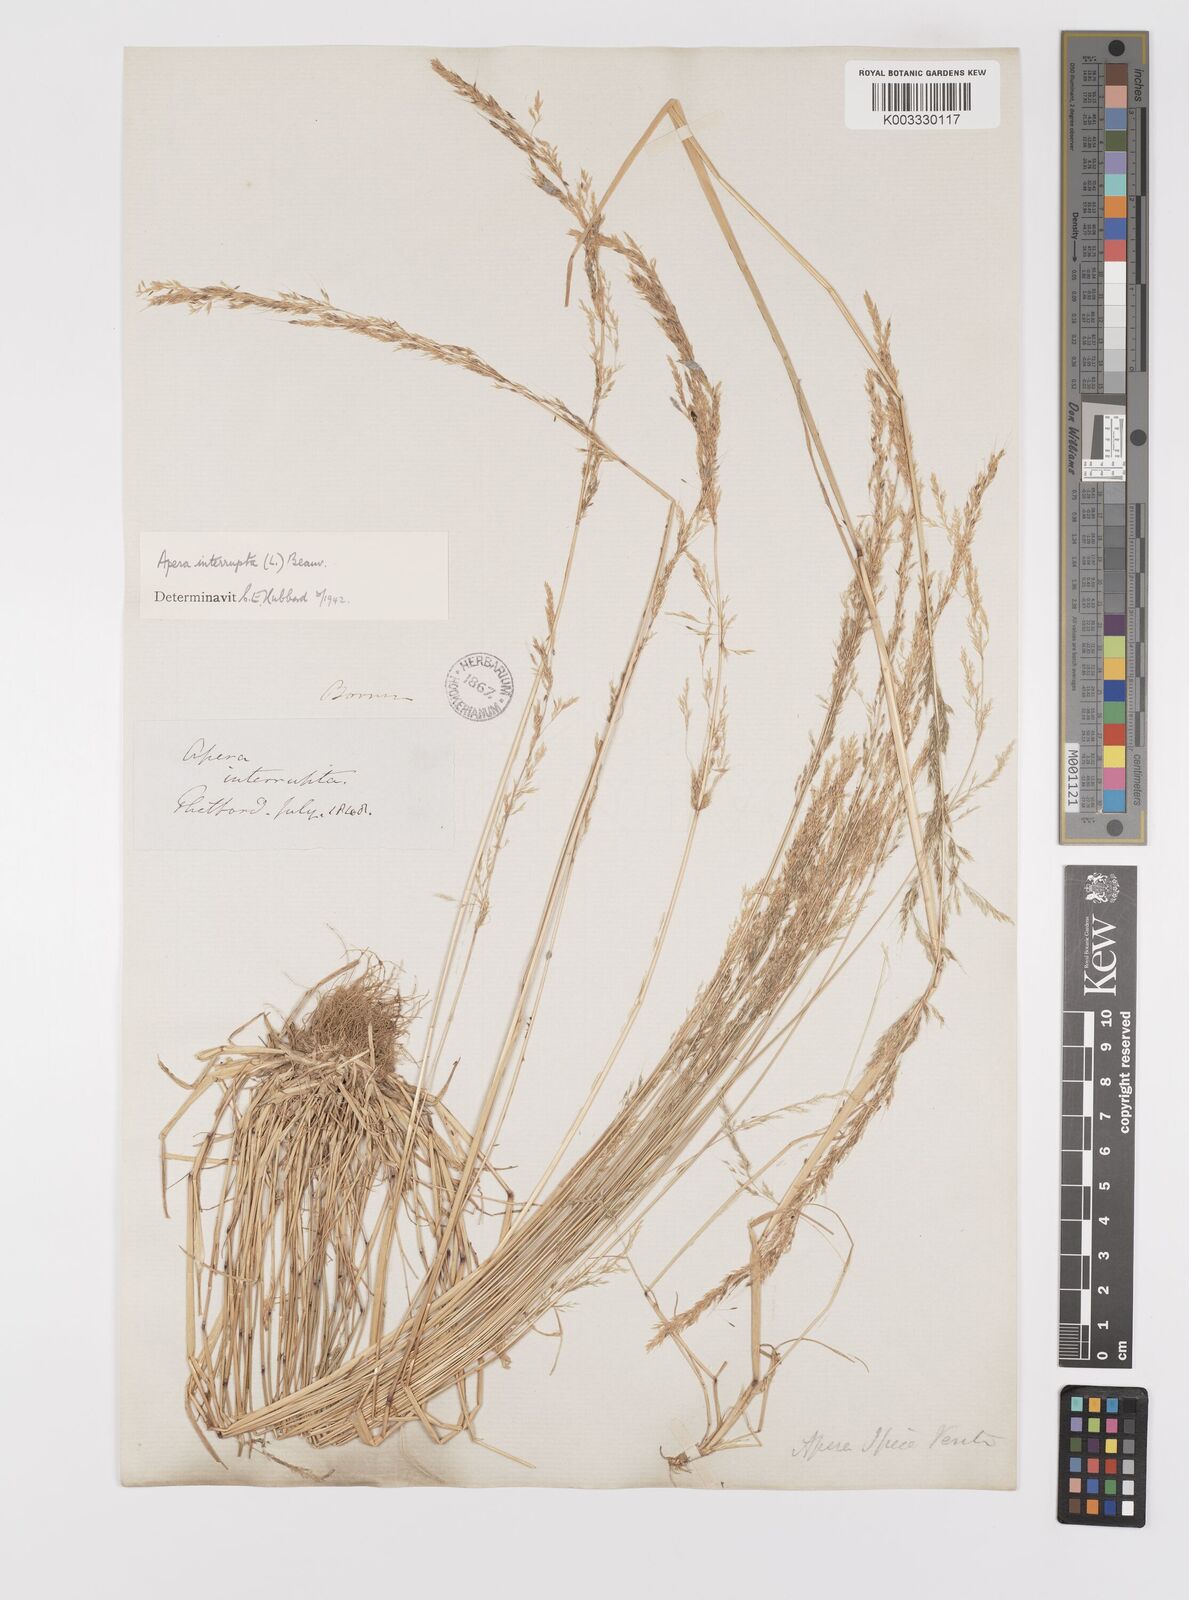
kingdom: Plantae
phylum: Tracheophyta
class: Liliopsida
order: Poales
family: Poaceae
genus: Apera
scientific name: Apera interrupta
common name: Dense silky-bent
